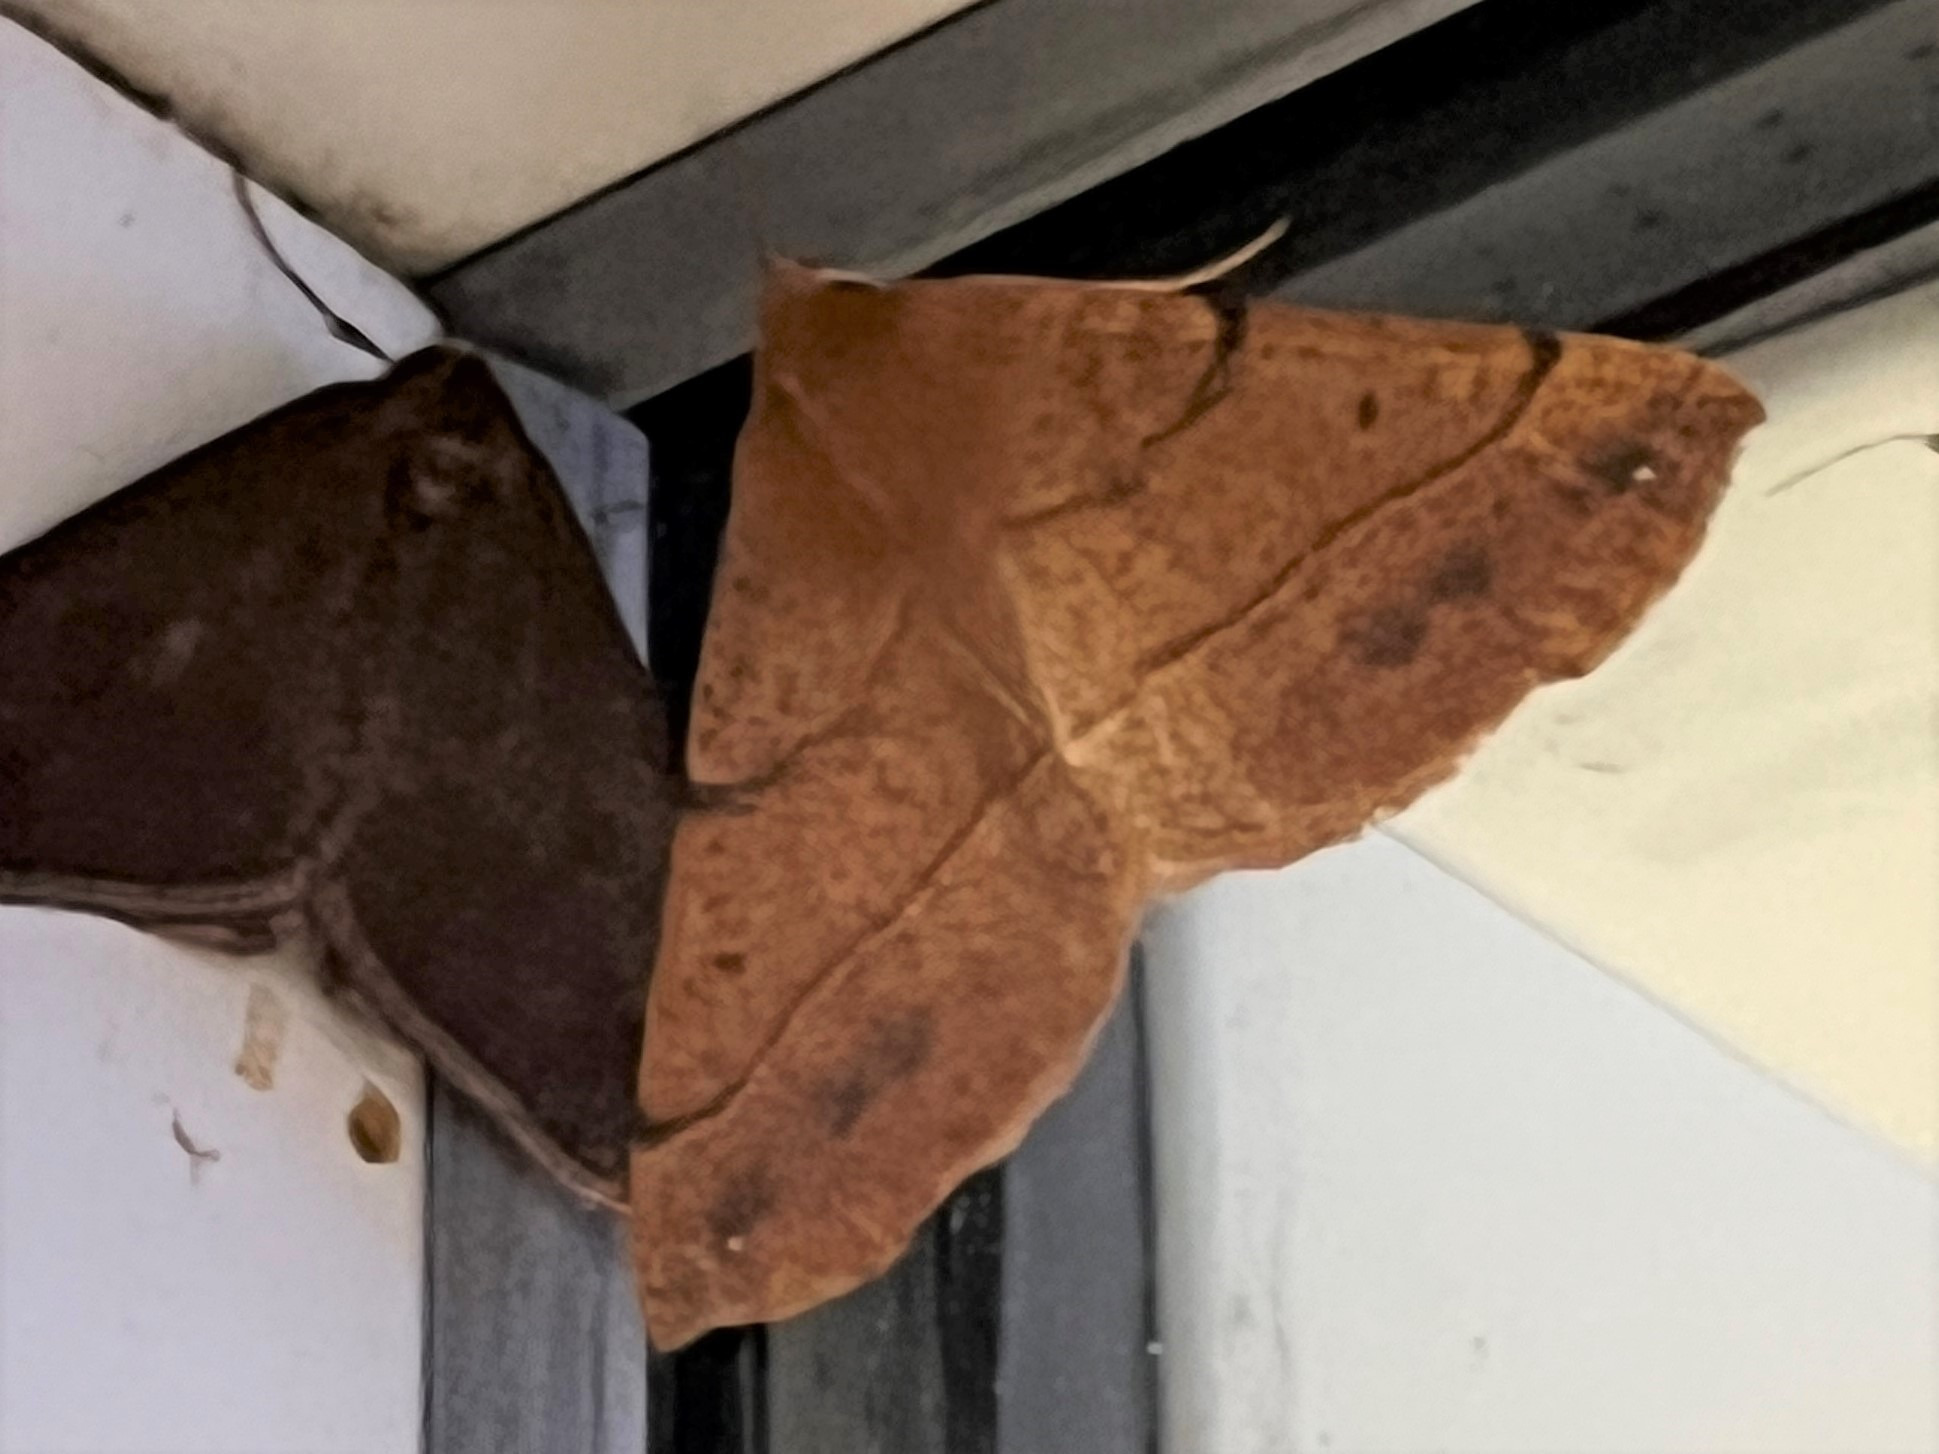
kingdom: Animalia
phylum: Arthropoda
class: Insecta
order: Lepidoptera
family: Geometridae
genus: Colotois
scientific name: Colotois pennaria
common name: Løvfaldsmåler
